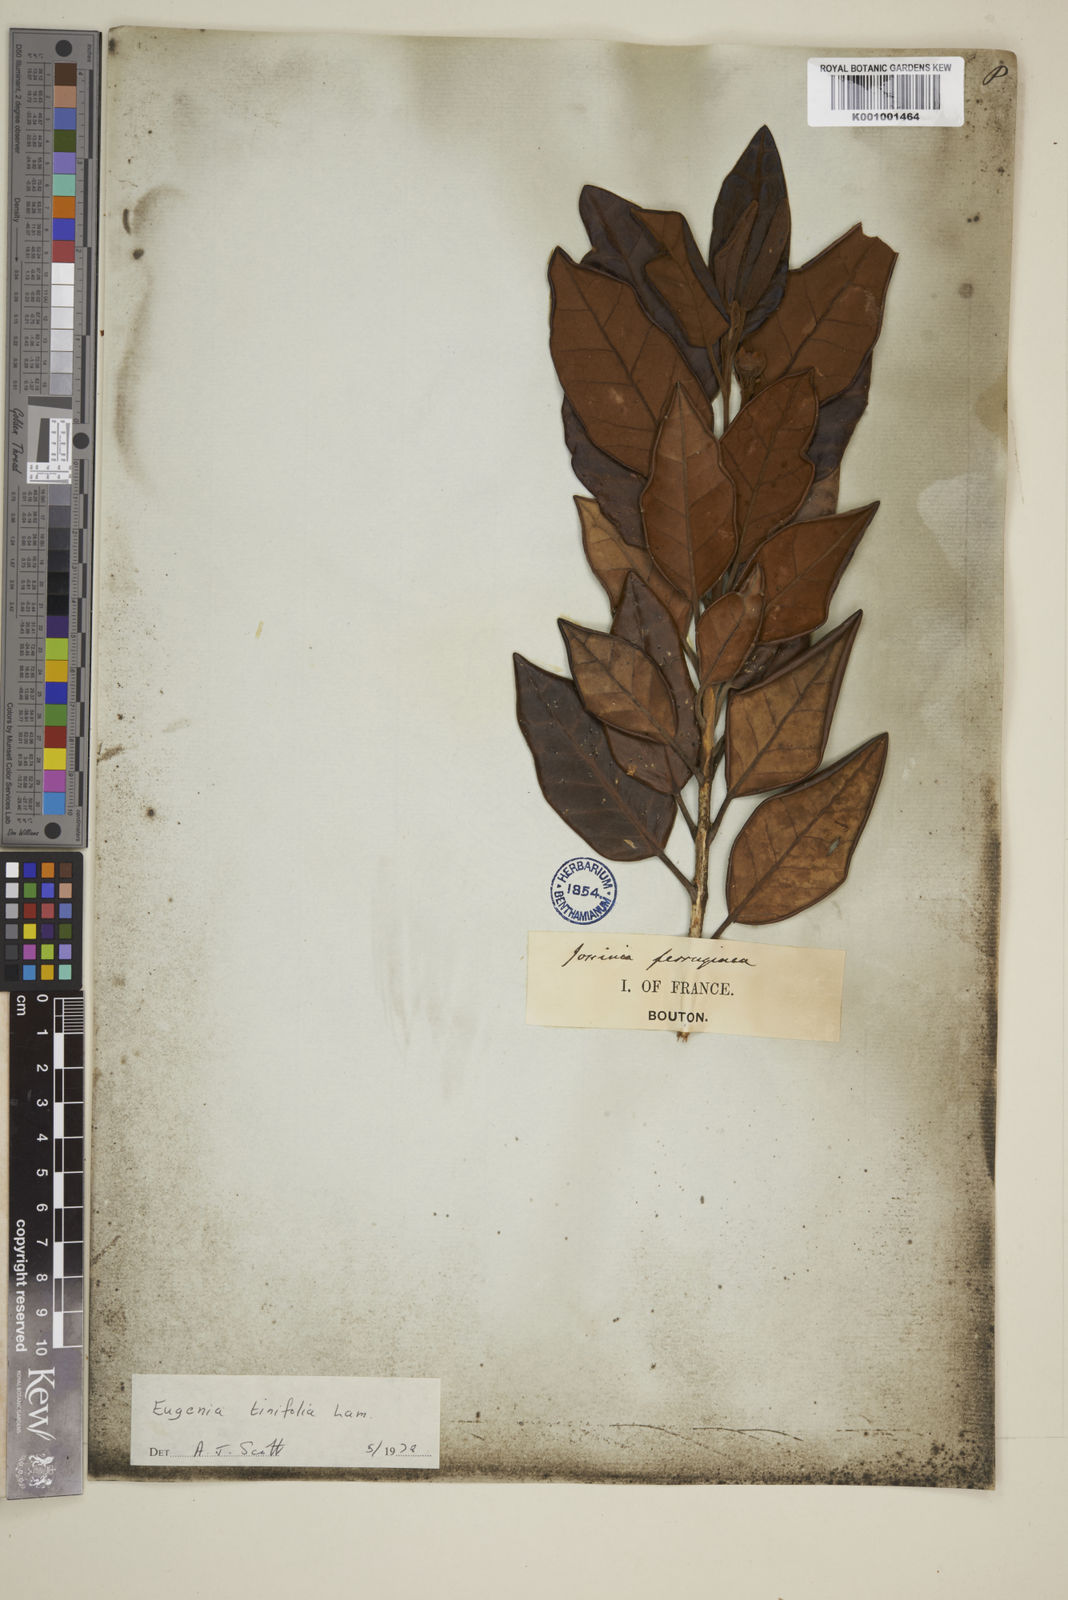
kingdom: Plantae
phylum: Tracheophyta
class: Magnoliopsida
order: Myrtales
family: Myrtaceae
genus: Eugenia
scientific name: Eugenia tinifolia
